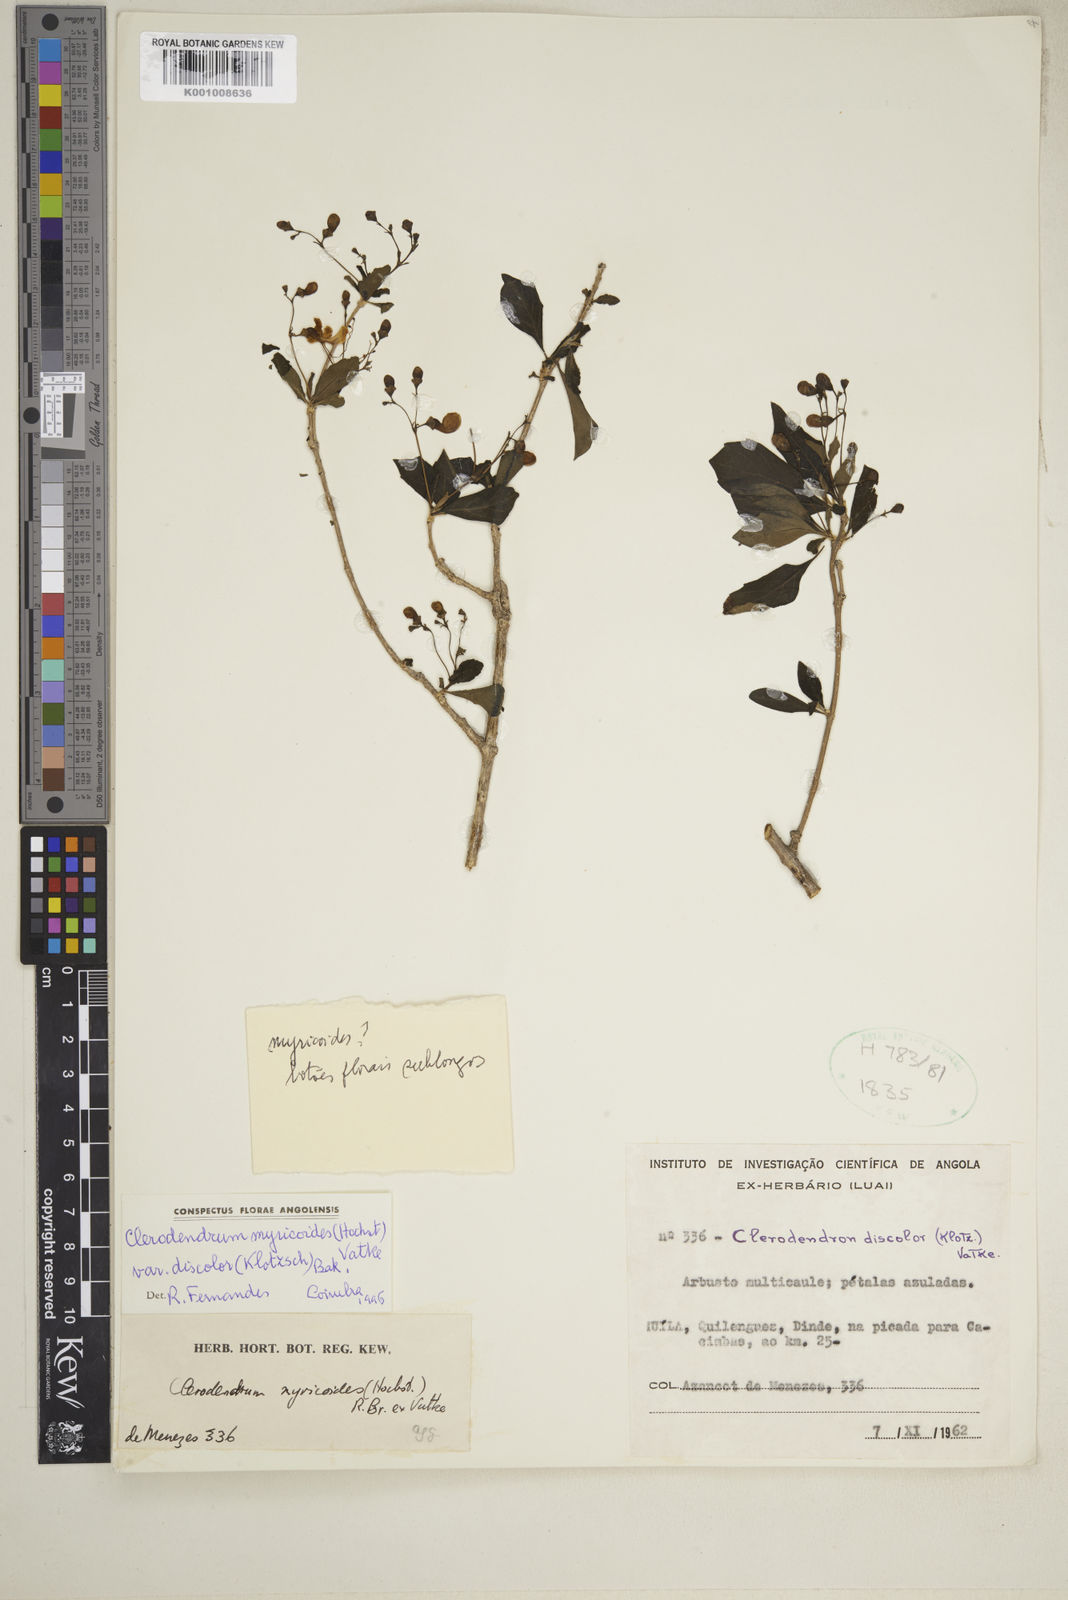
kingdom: Plantae
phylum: Tracheophyta
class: Magnoliopsida
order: Lamiales
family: Lamiaceae
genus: Rotheca
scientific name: Rotheca myricoides
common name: Cats-whiskers
